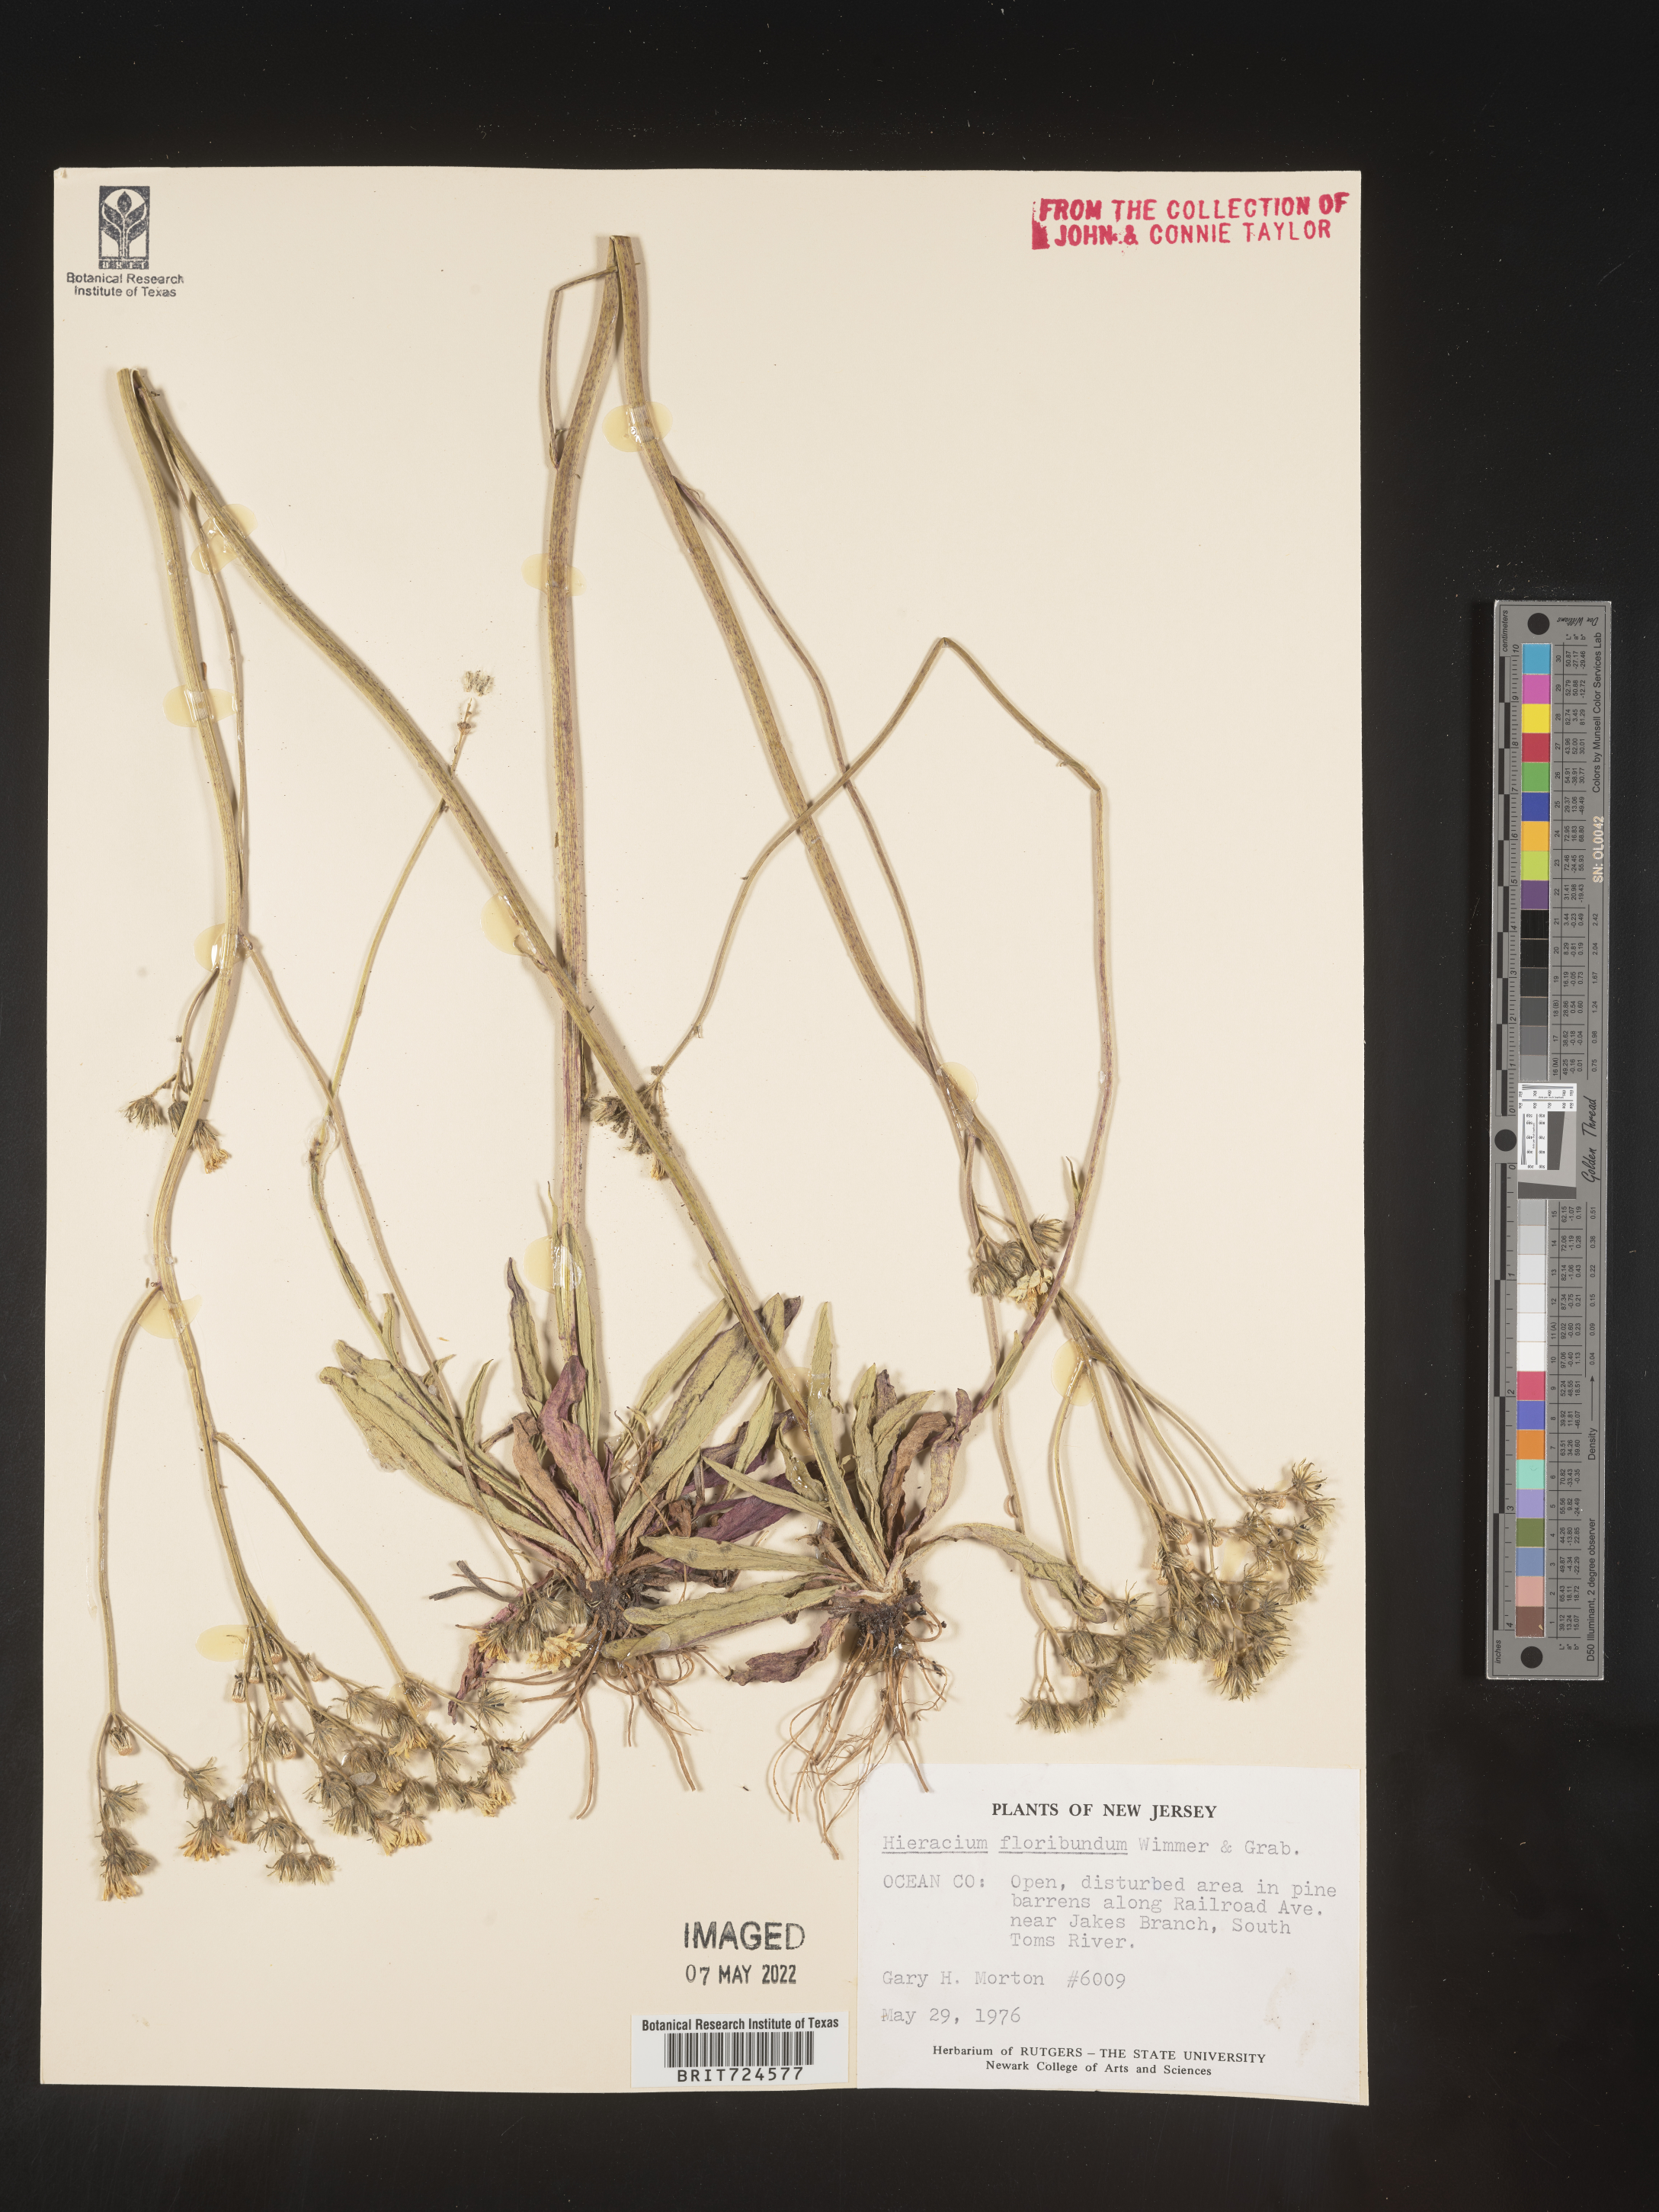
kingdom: Plantae
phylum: Tracheophyta
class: Magnoliopsida
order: Asterales
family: Asteraceae
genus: Pilosella
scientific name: Pilosella floribunda
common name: Glaucous hawkweed
